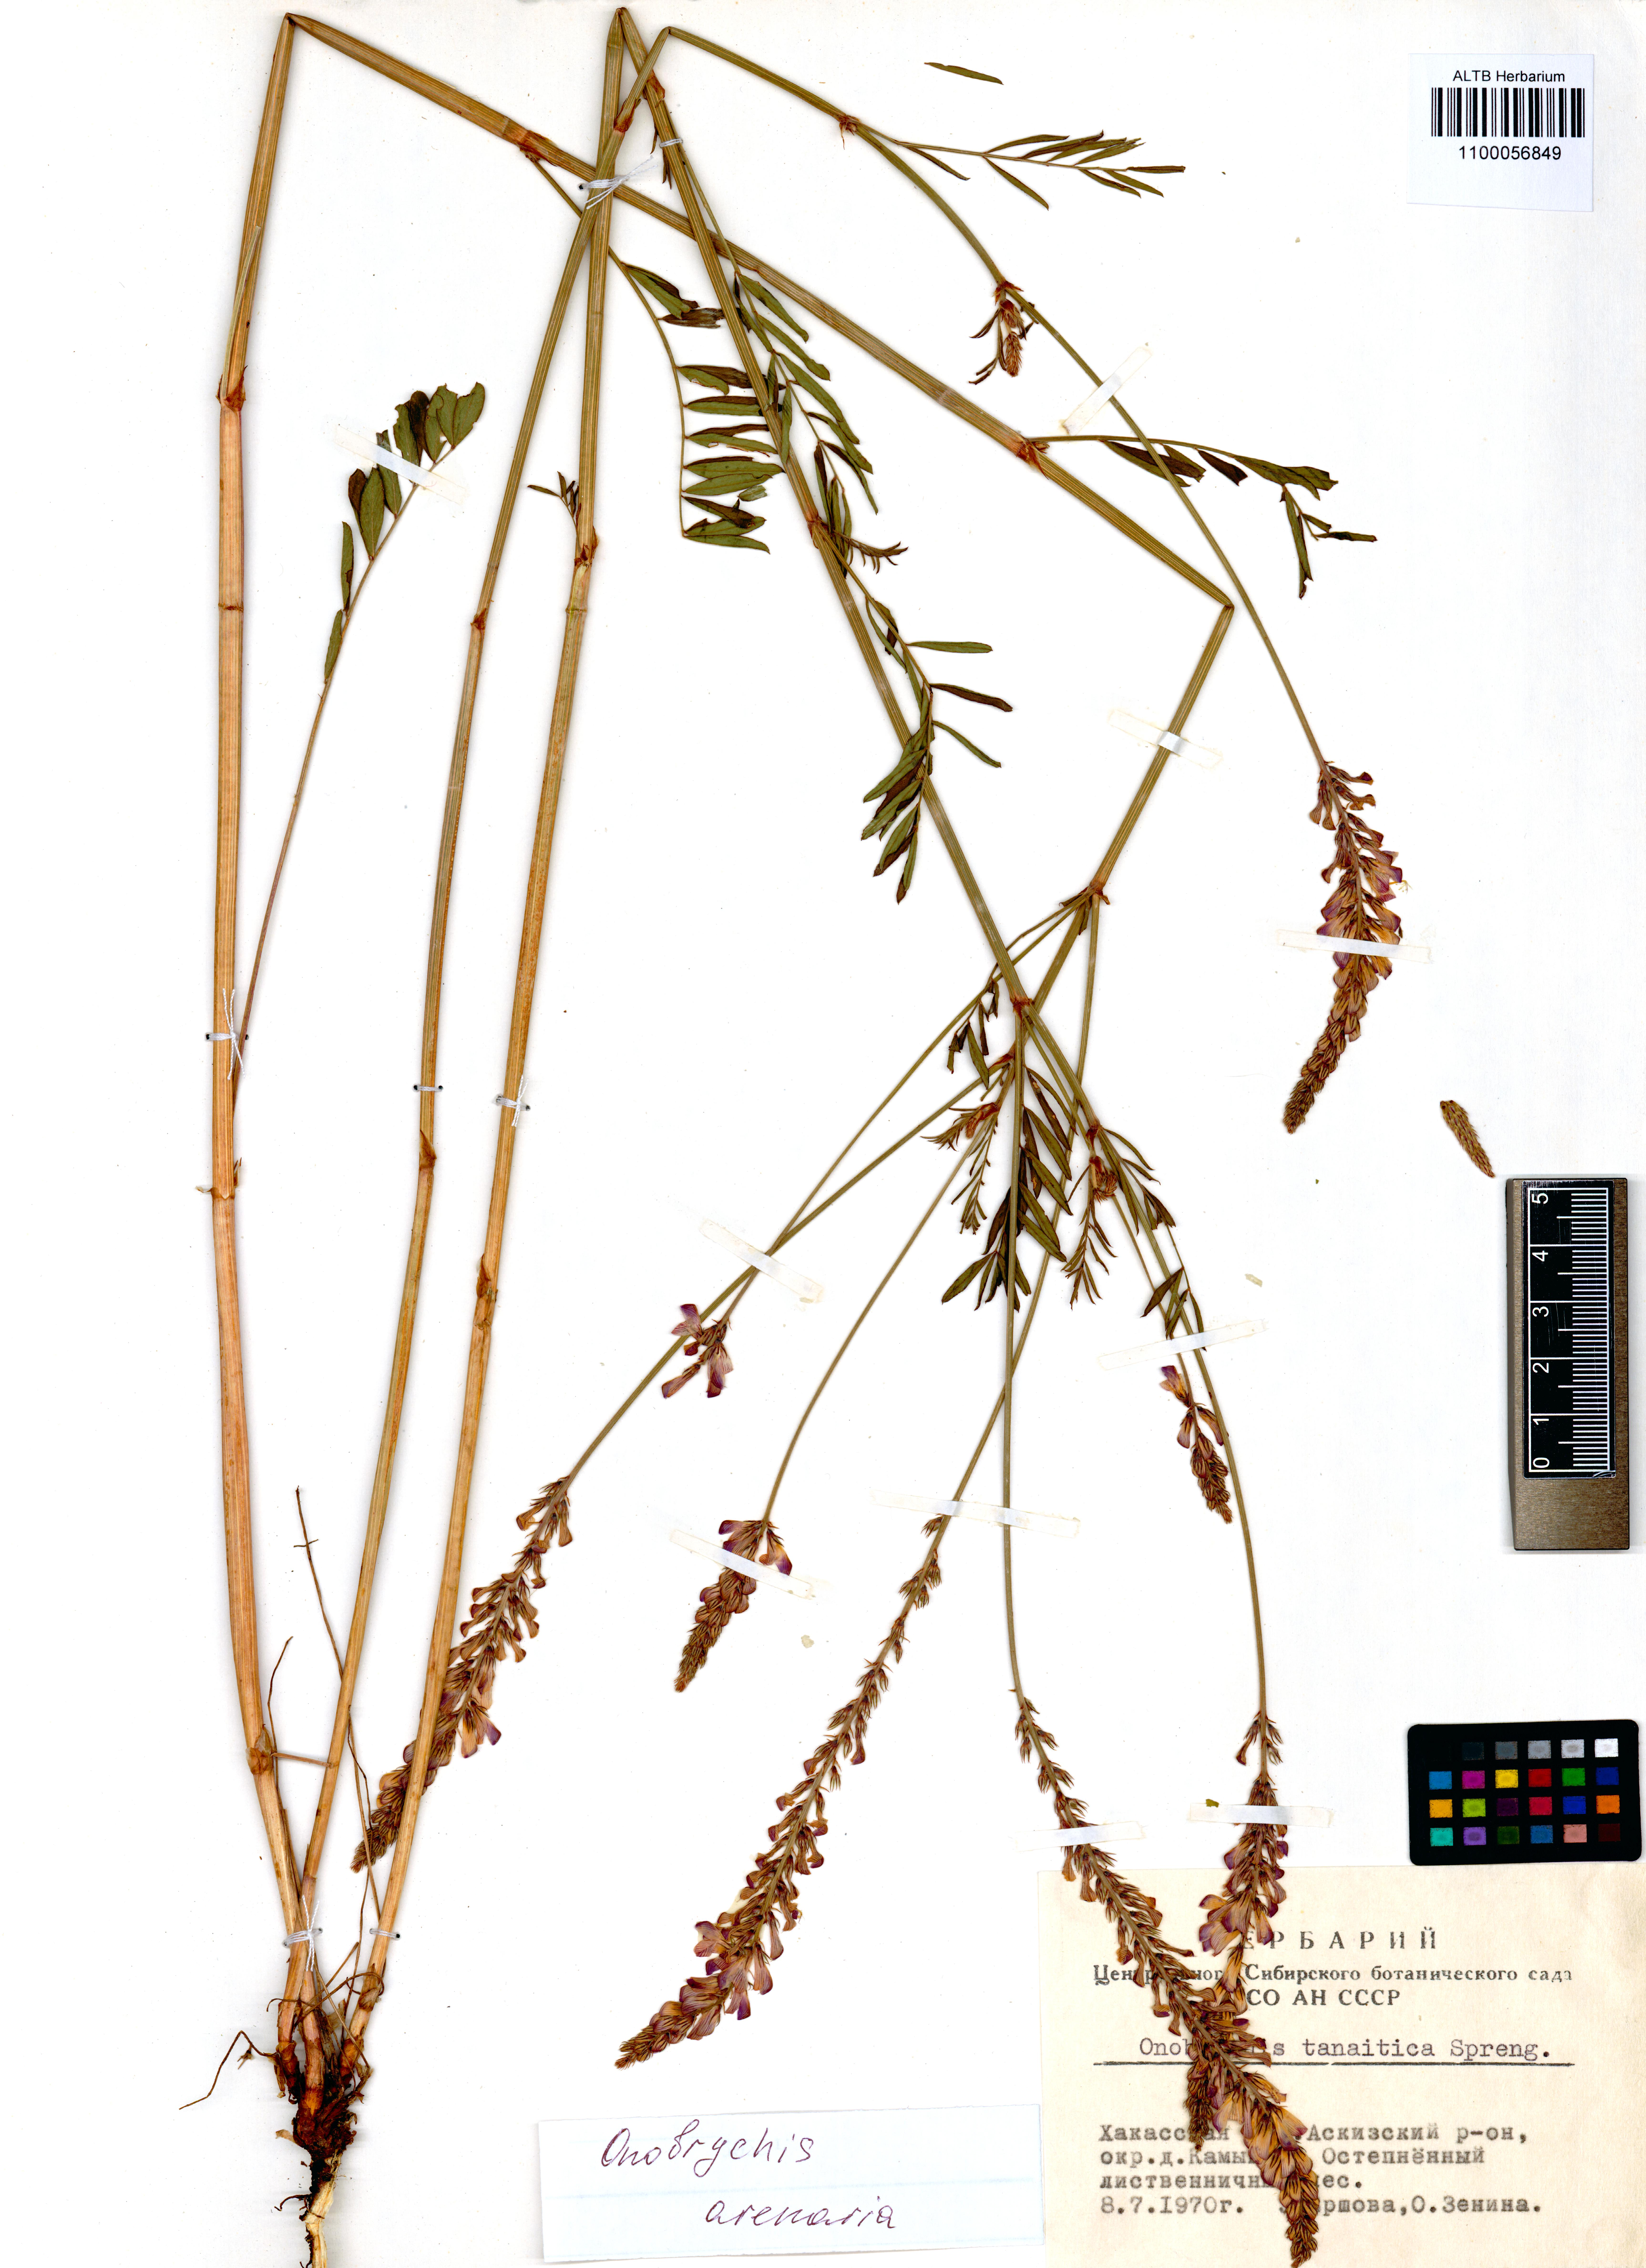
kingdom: Plantae
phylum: Tracheophyta
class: Magnoliopsida
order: Fabales
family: Fabaceae
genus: Onobrychis
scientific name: Onobrychis arenaria
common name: Sand esparcet
